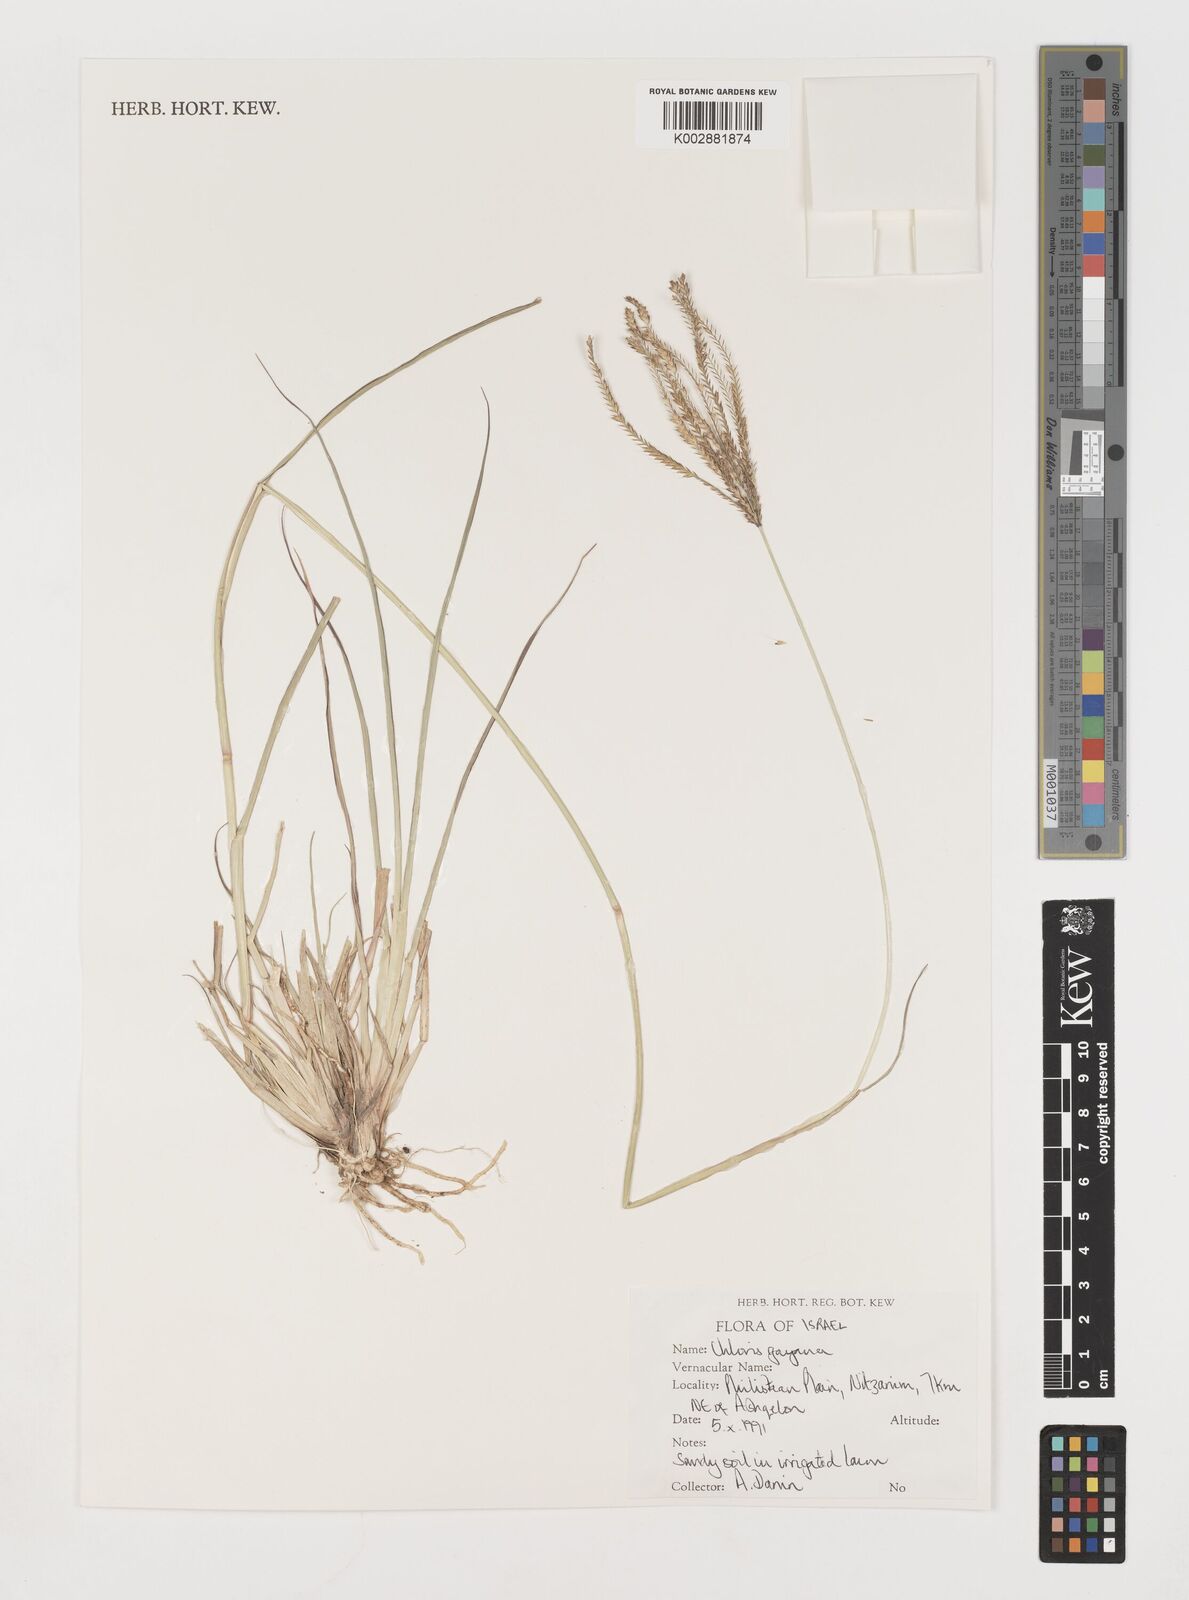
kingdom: Plantae
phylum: Tracheophyta
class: Liliopsida
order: Poales
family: Poaceae
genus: Chloris
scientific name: Chloris gayana
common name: Rhodes grass
